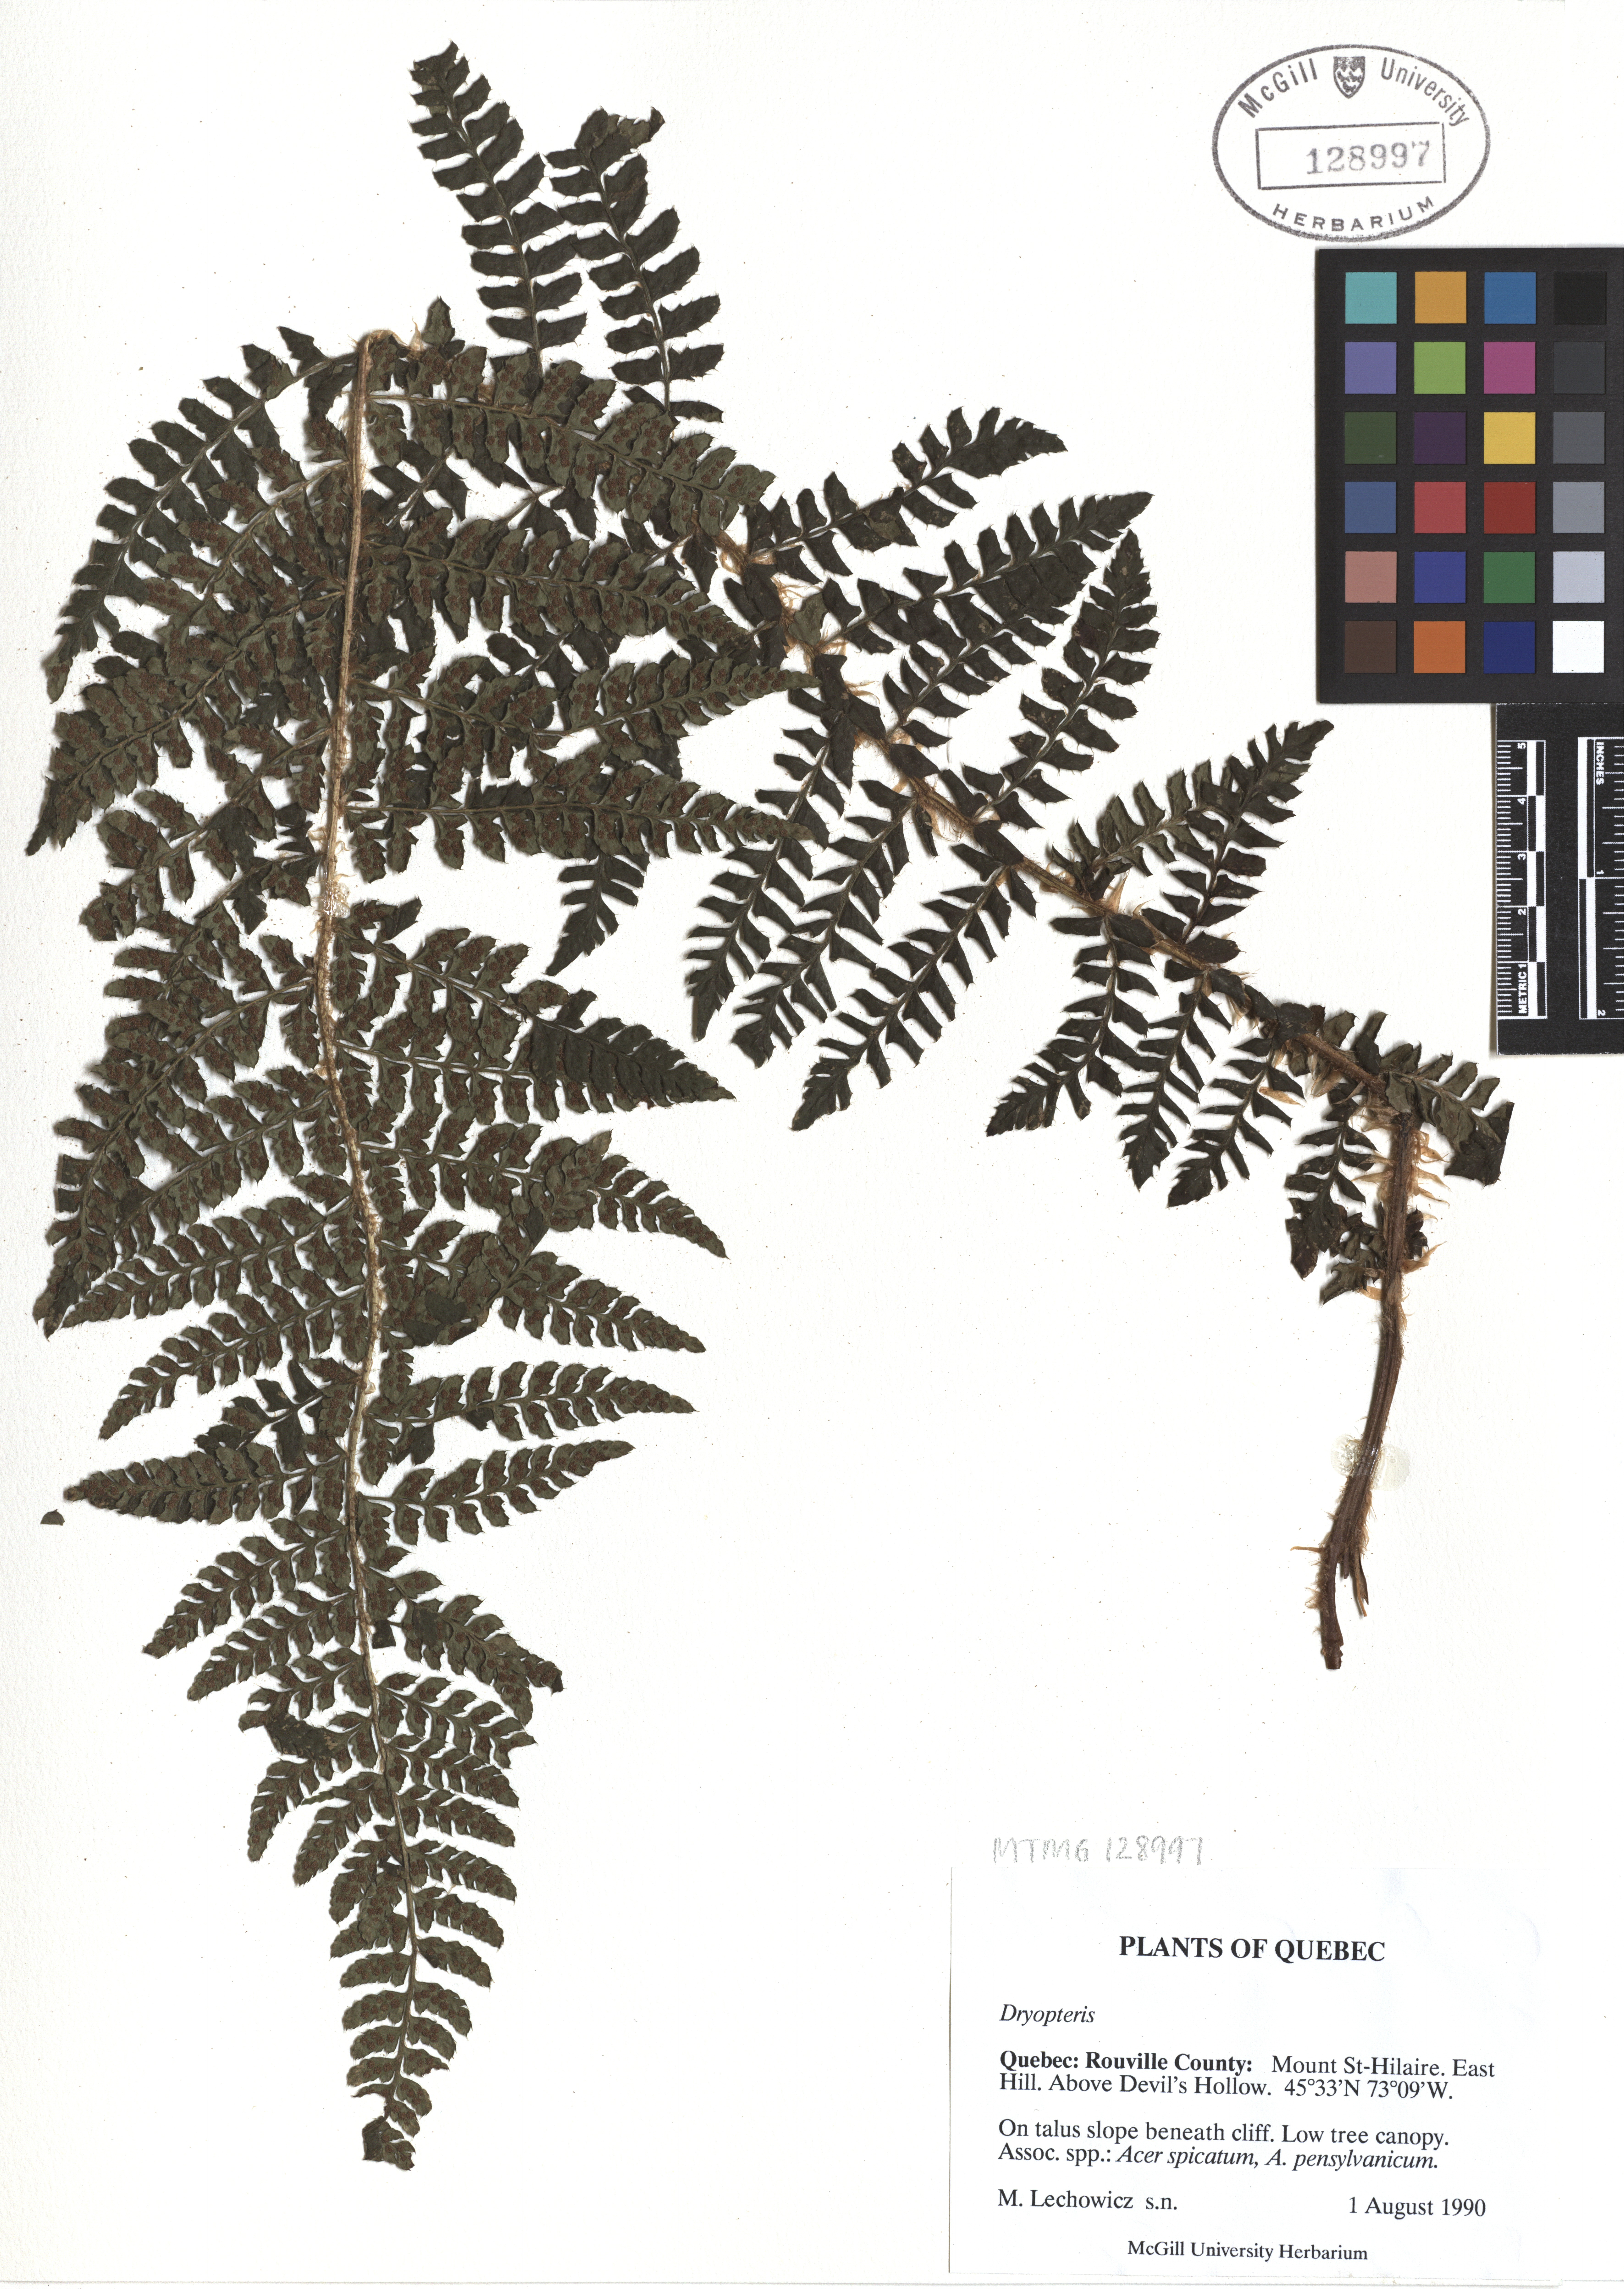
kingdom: Plantae
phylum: Tracheophyta
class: Polypodiopsida
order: Polypodiales
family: Dryopteridaceae
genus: Dryopteris
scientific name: Dryopteris
